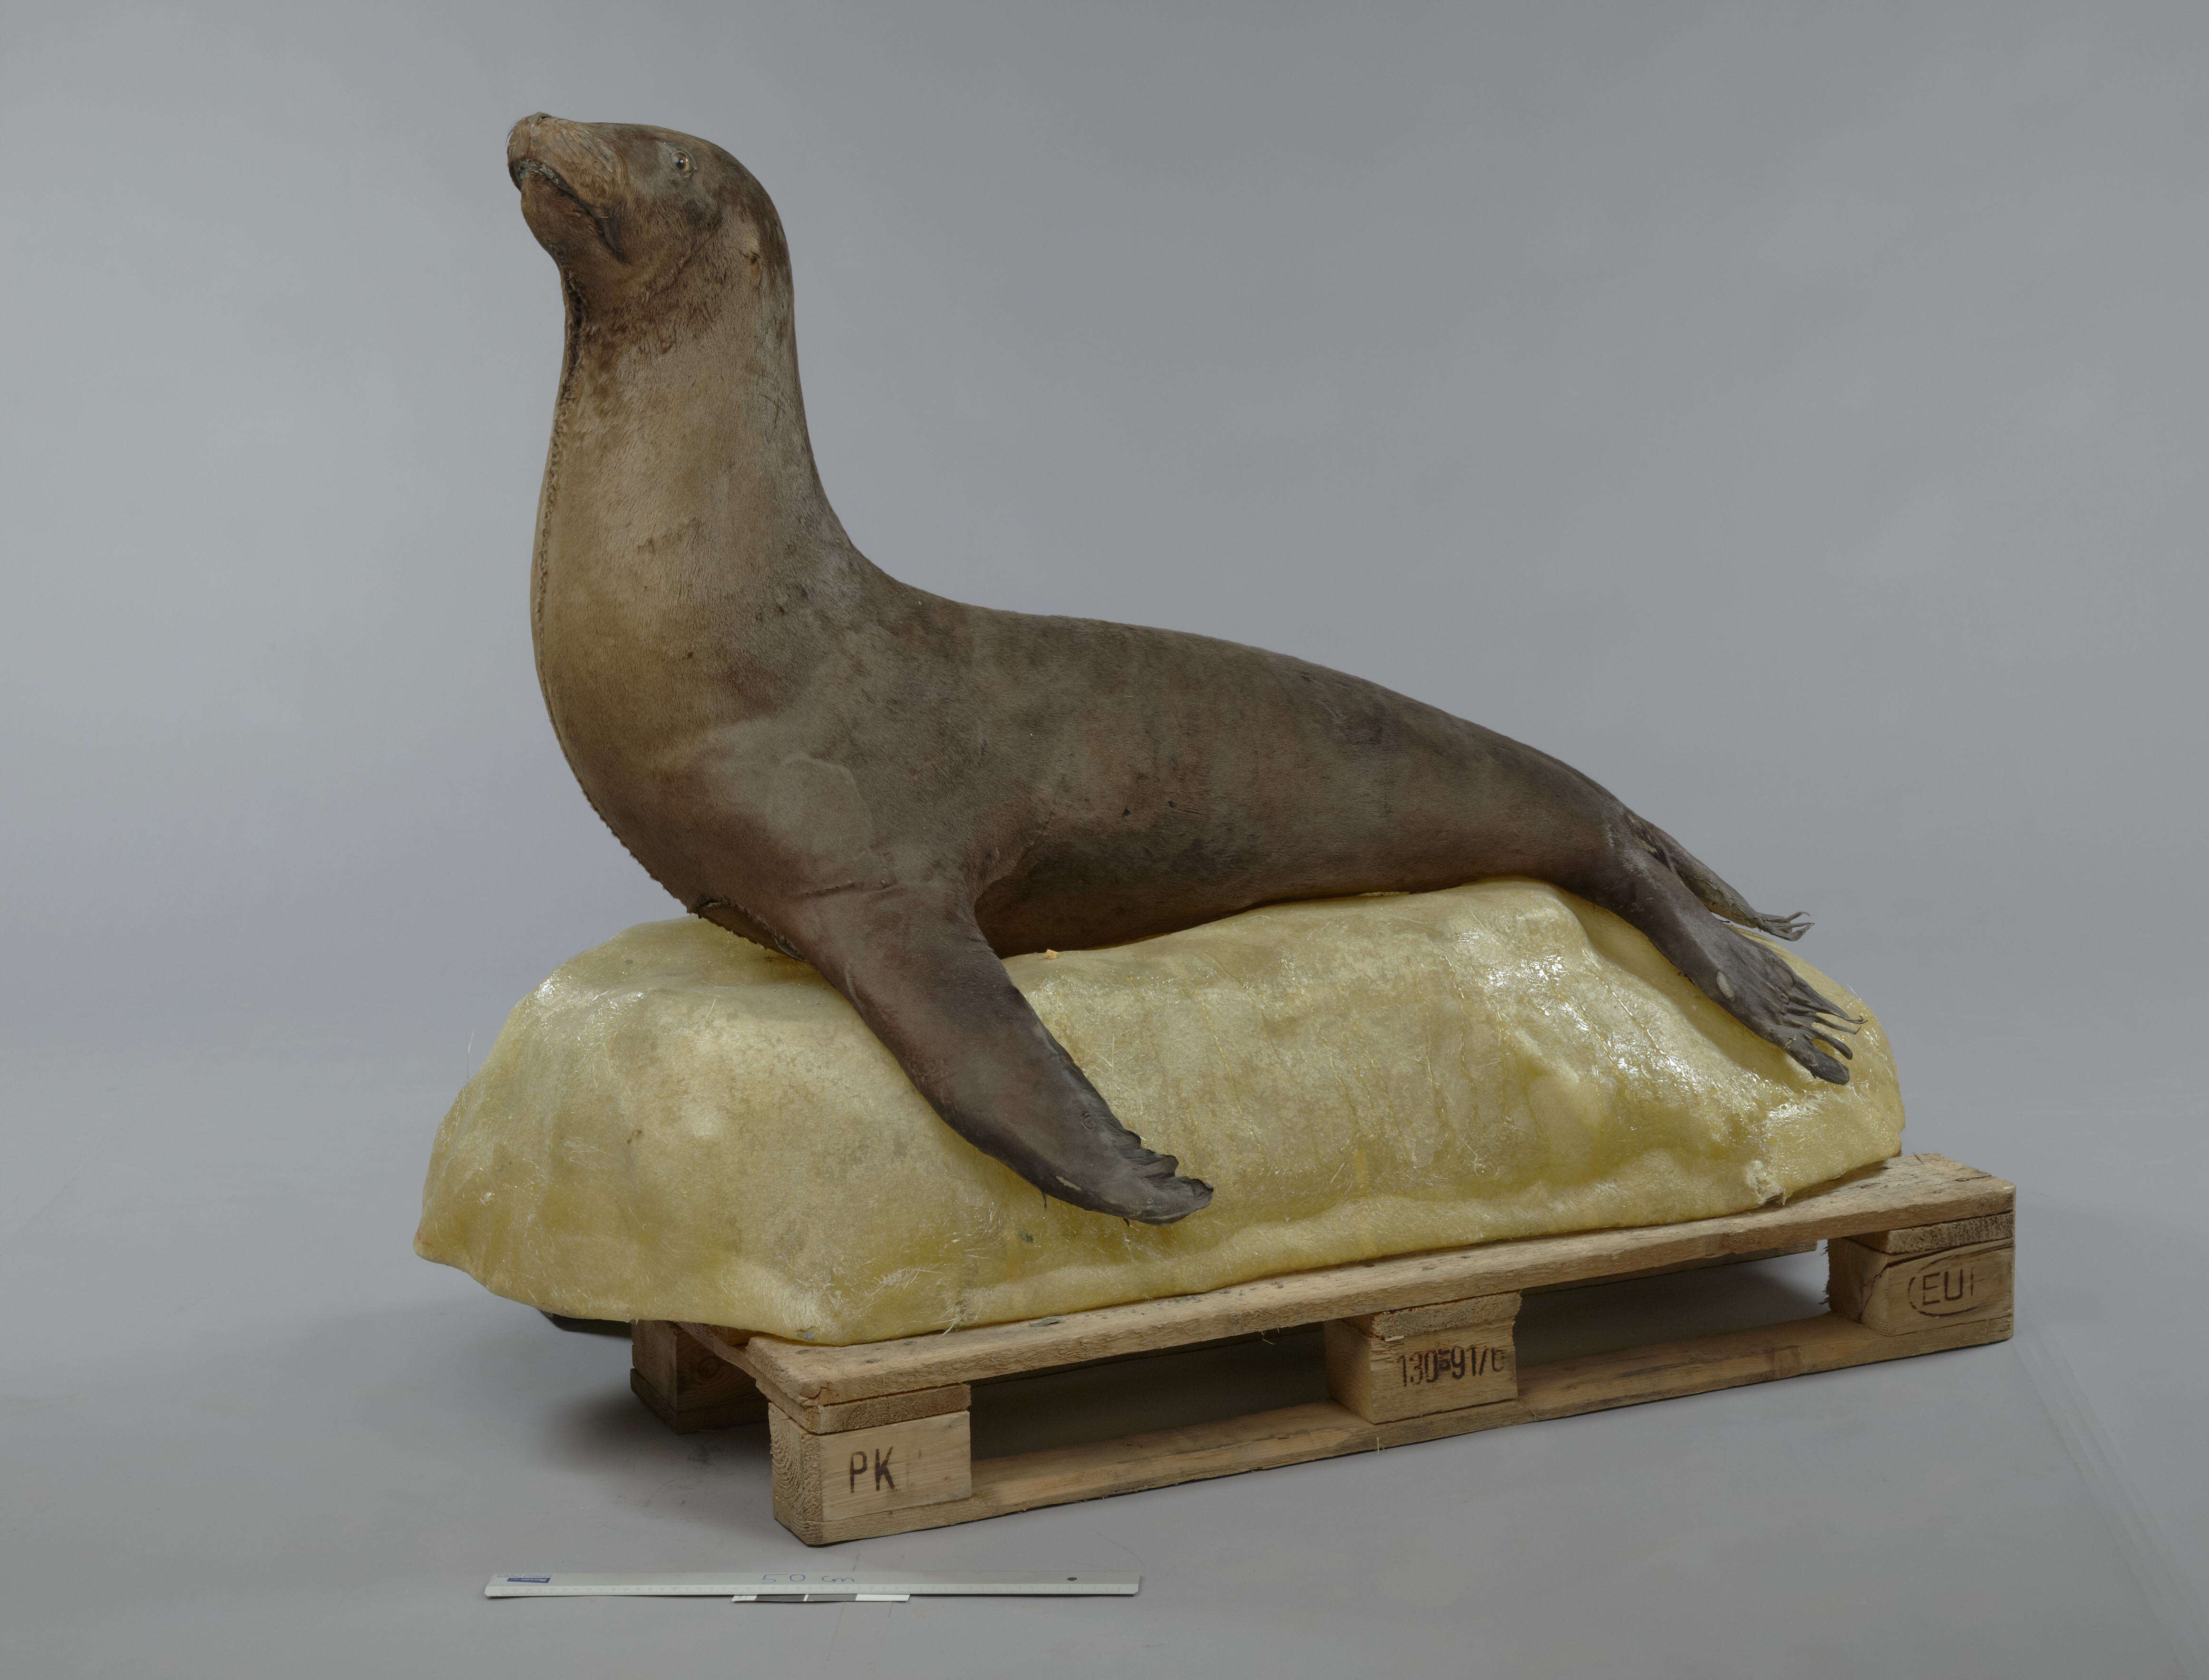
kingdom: Animalia
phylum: Chordata
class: Mammalia
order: Carnivora
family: Otariidae
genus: Zalophus
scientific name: Zalophus wollebaeki
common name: Galapagos sea lion
